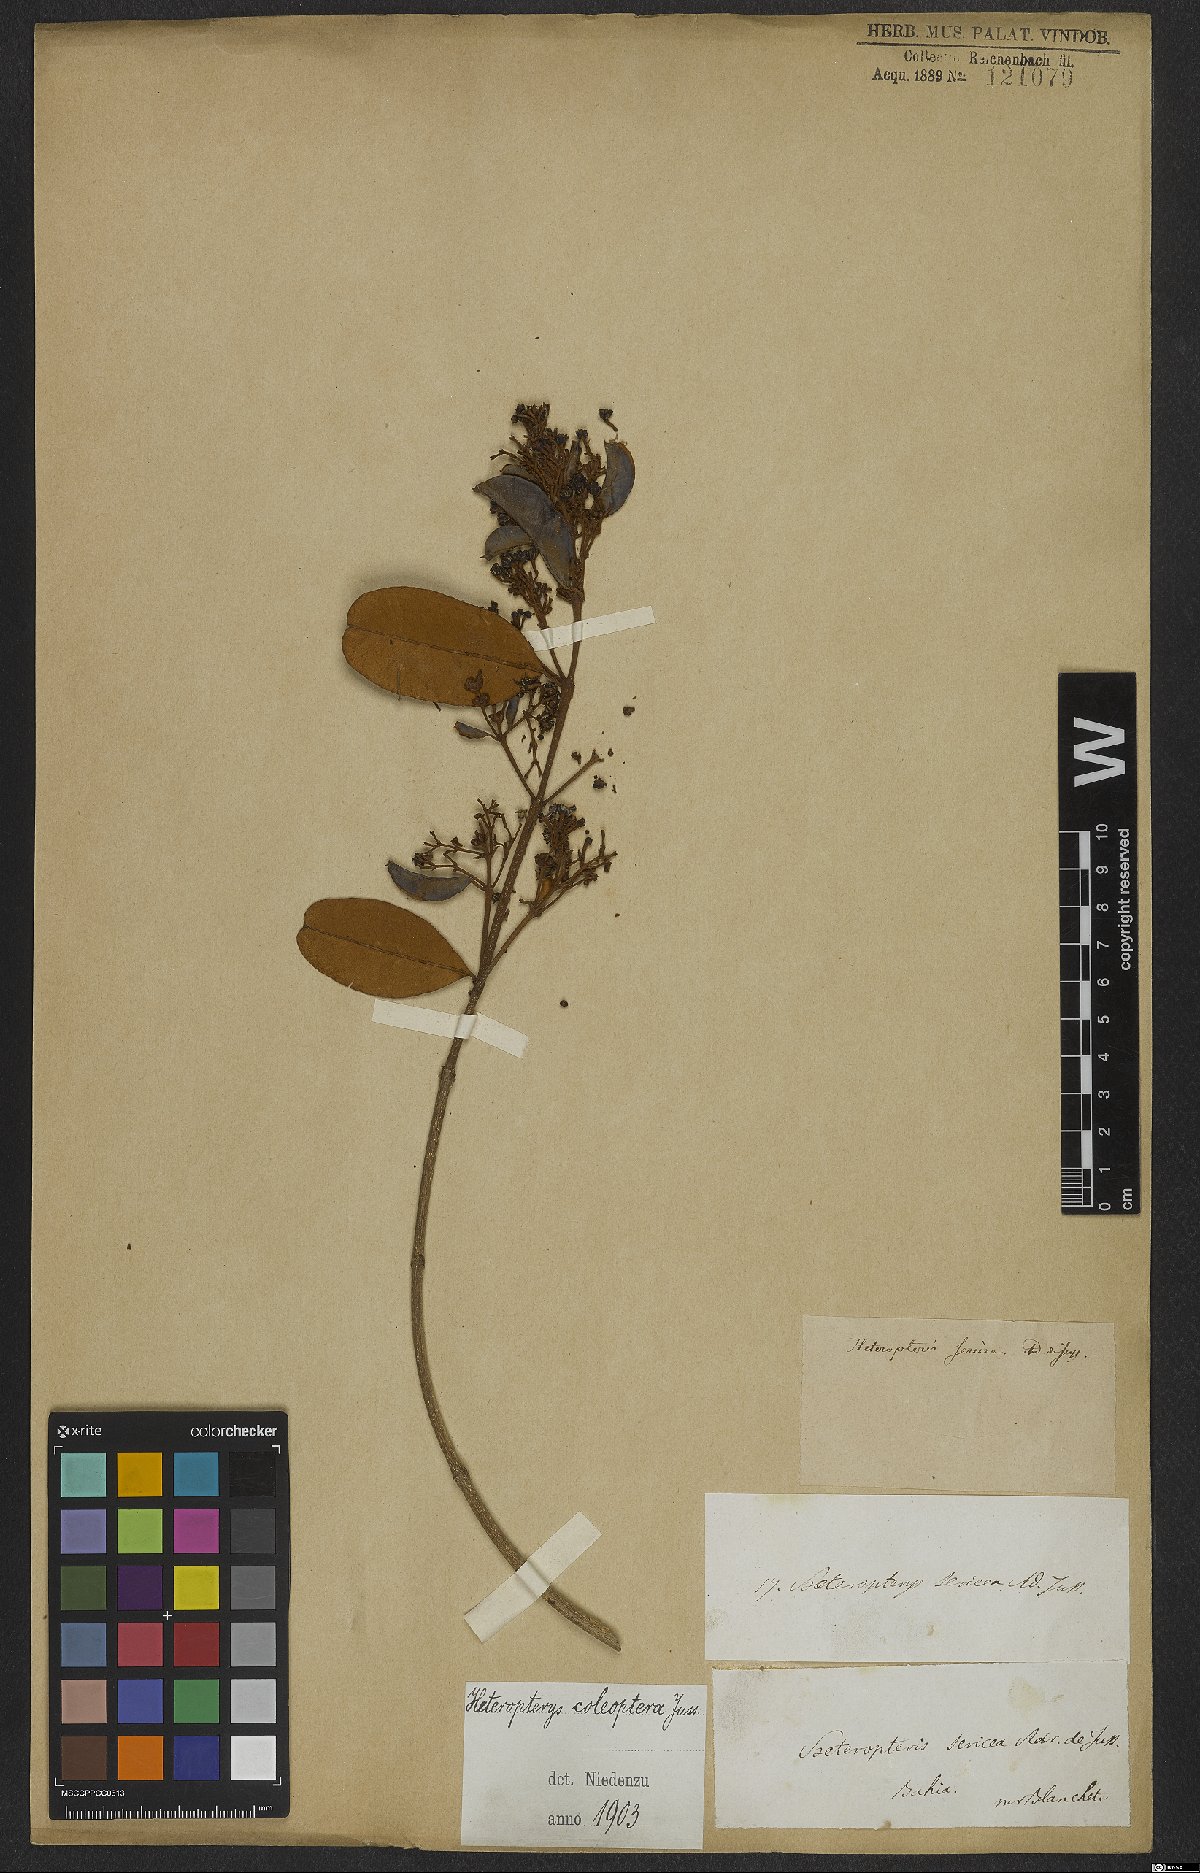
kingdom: Plantae
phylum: Tracheophyta
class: Magnoliopsida
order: Malpighiales
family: Malpighiaceae
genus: Heteropterys
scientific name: Heteropterys coleoptera
